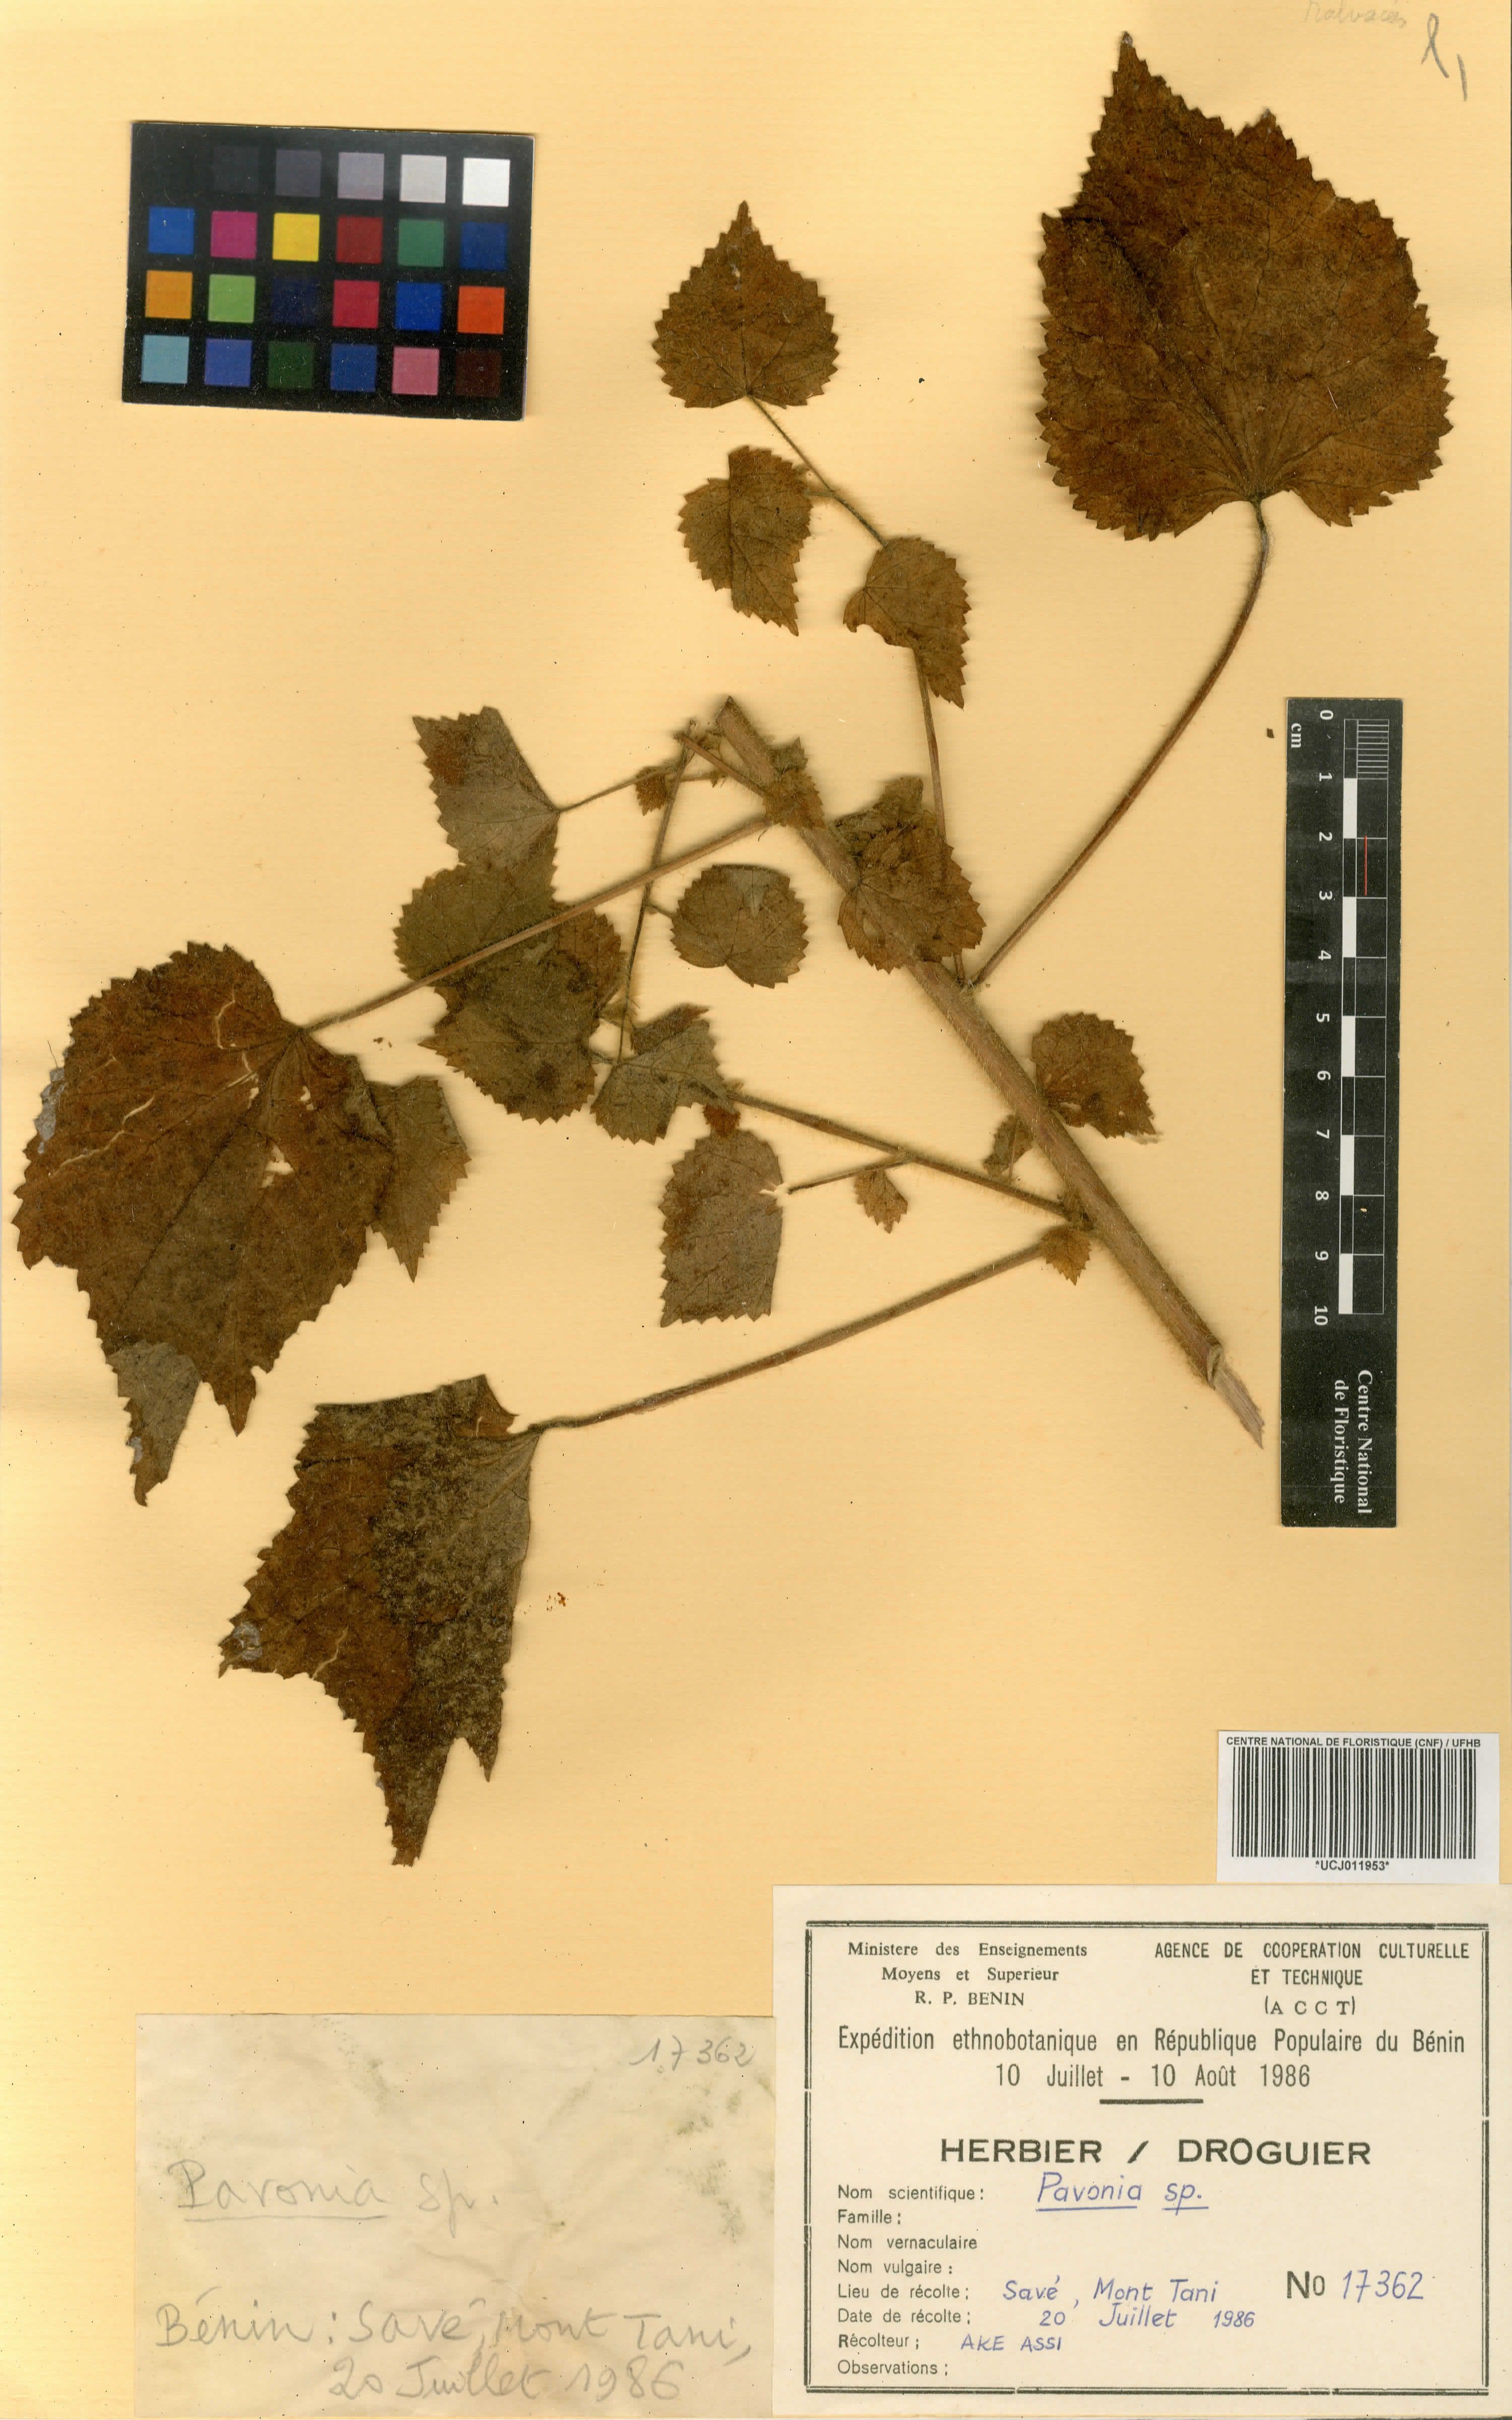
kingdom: Plantae
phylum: Tracheophyta
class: Magnoliopsida
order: Malvales
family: Malvaceae
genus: Pavonia
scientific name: Pavonia
